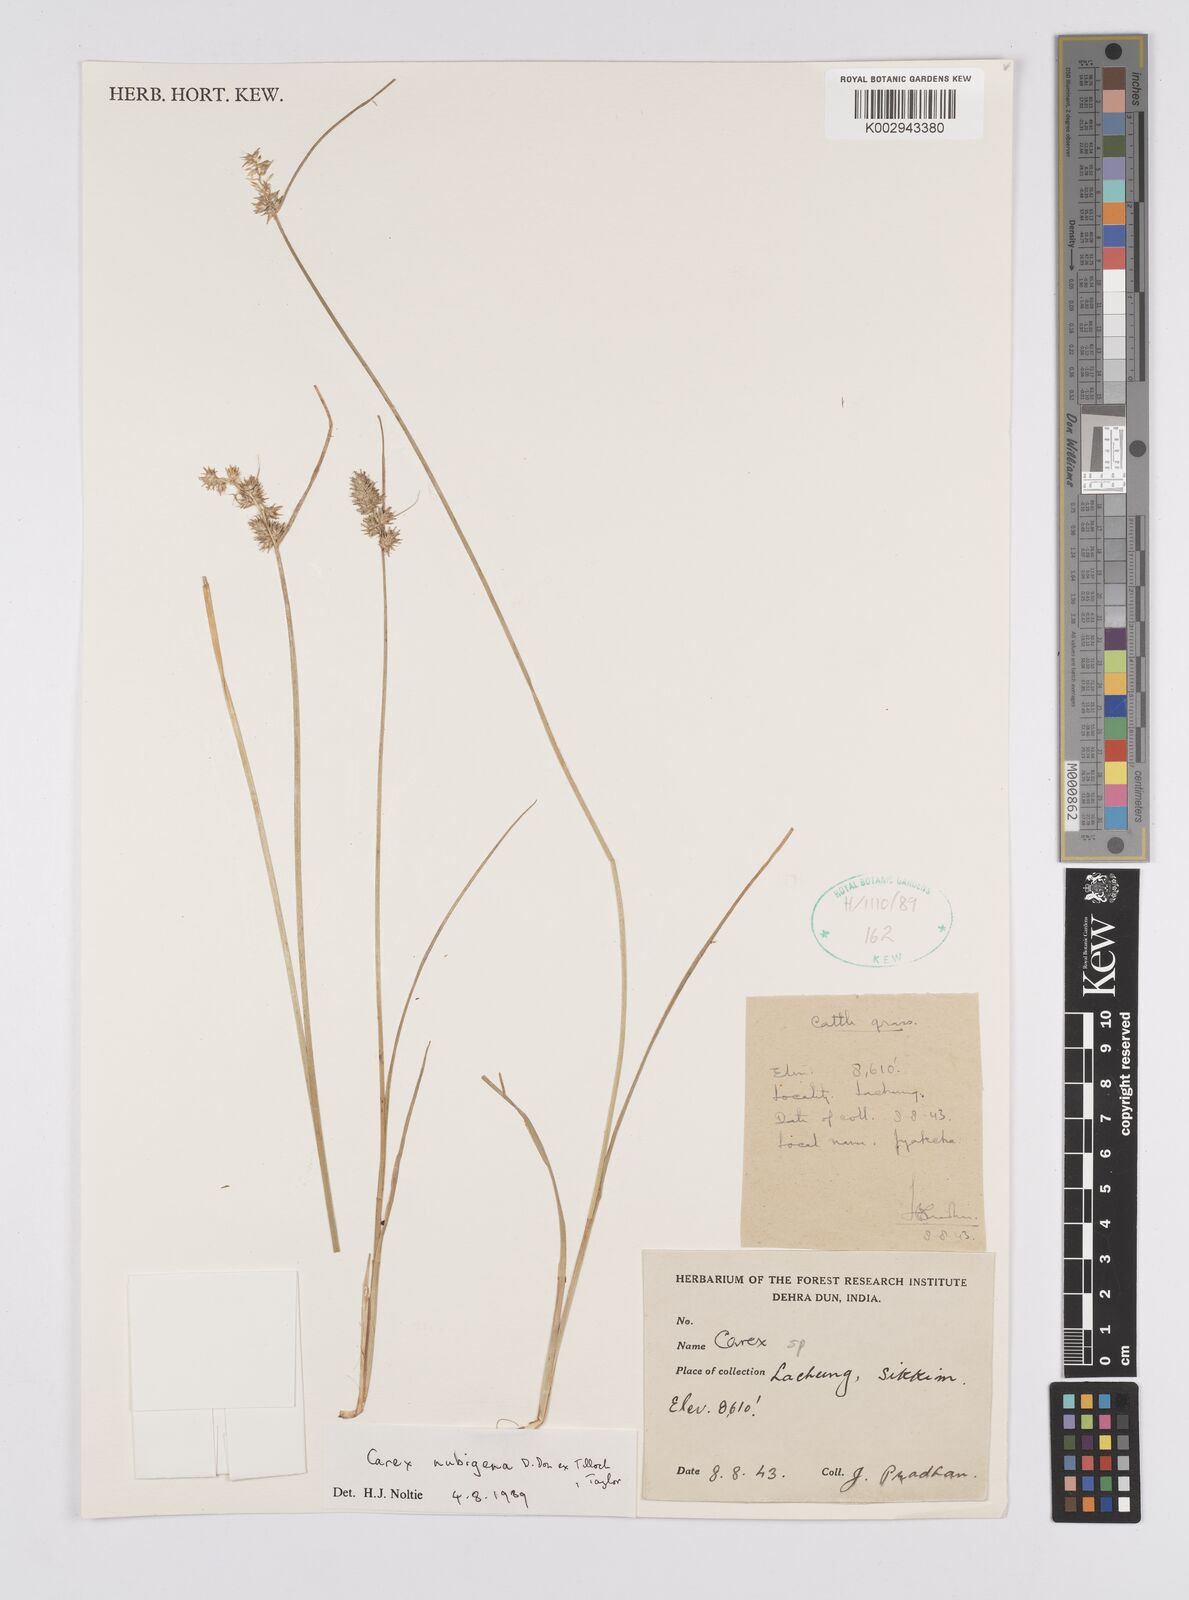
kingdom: Plantae
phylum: Tracheophyta
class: Liliopsida
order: Poales
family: Cyperaceae
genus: Carex
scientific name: Carex nubigena
